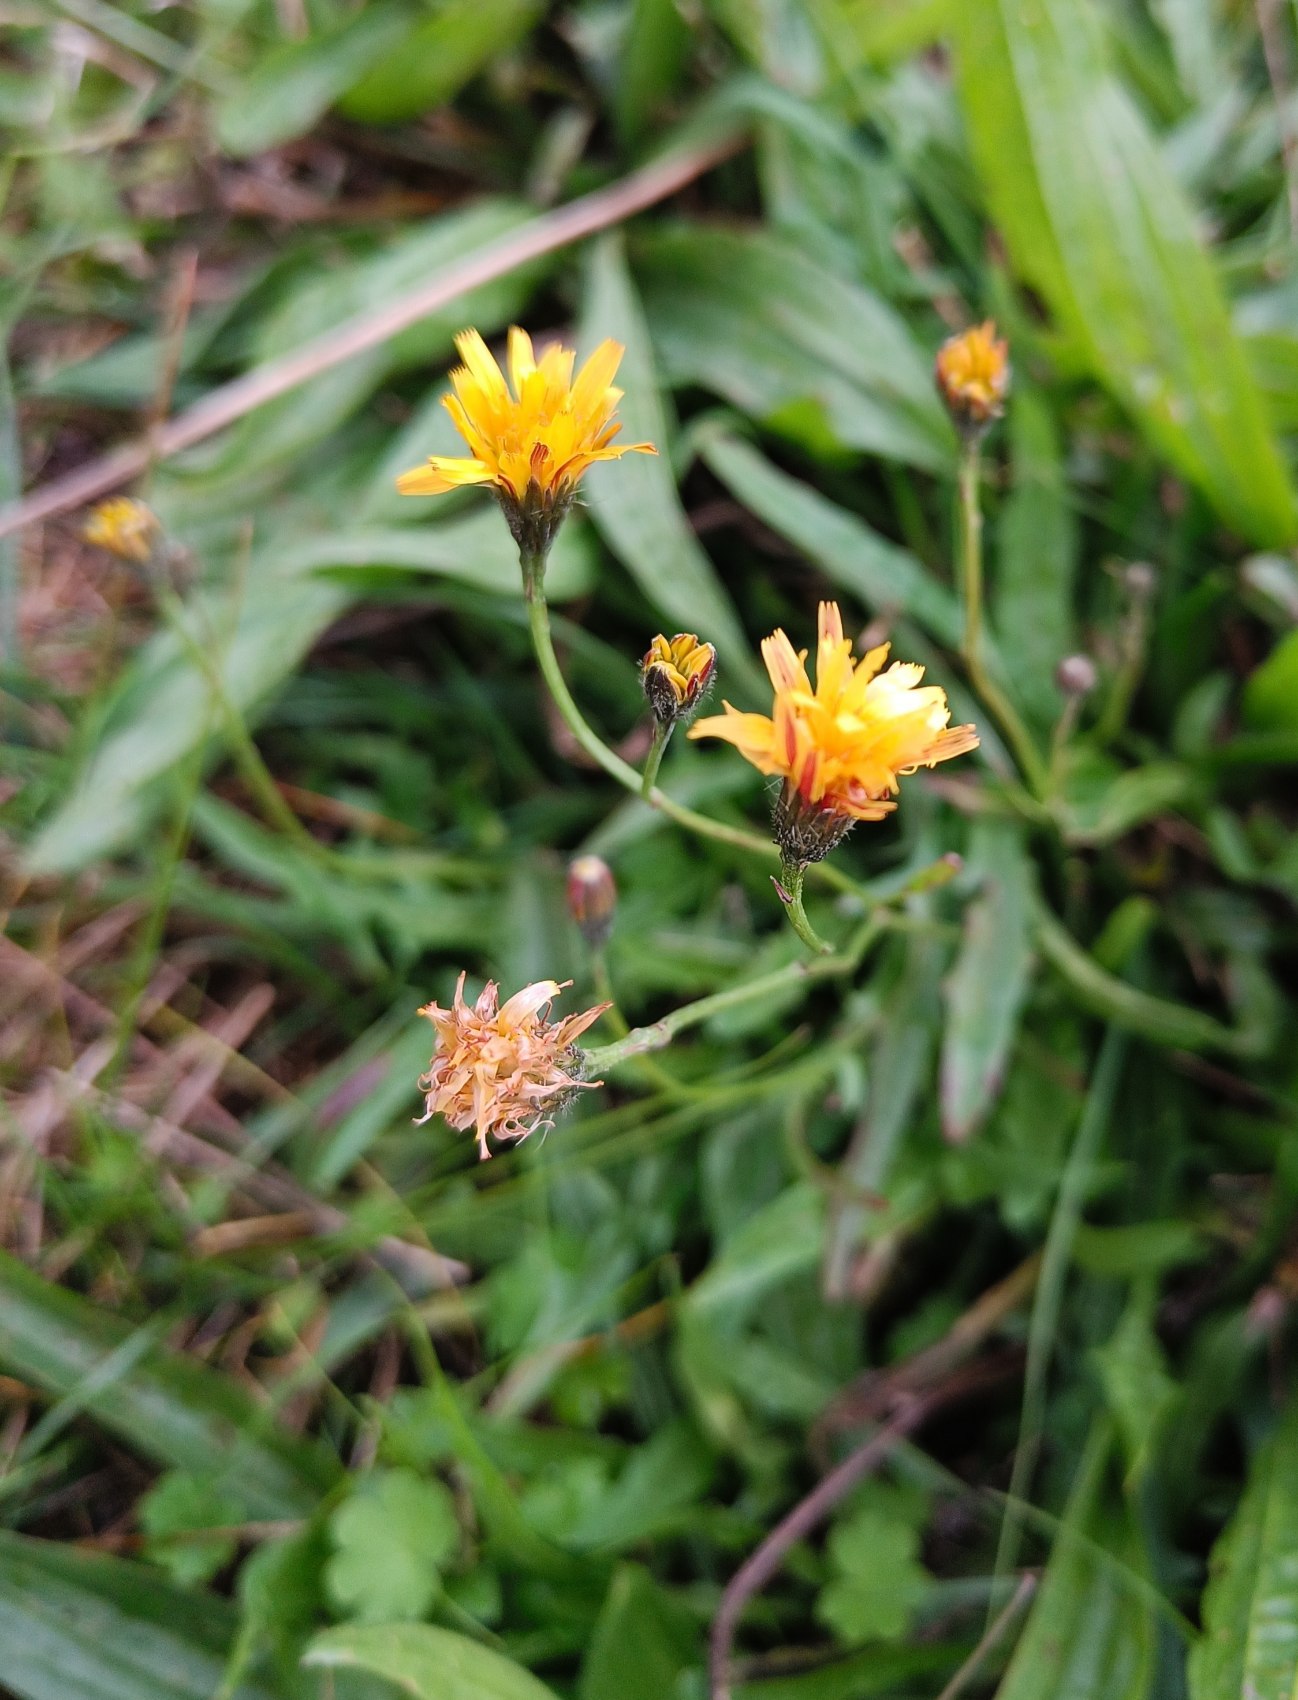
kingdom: Plantae
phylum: Tracheophyta
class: Magnoliopsida
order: Asterales
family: Asteraceae
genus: Scorzoneroides
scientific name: Scorzoneroides autumnalis
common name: Høst-borst
